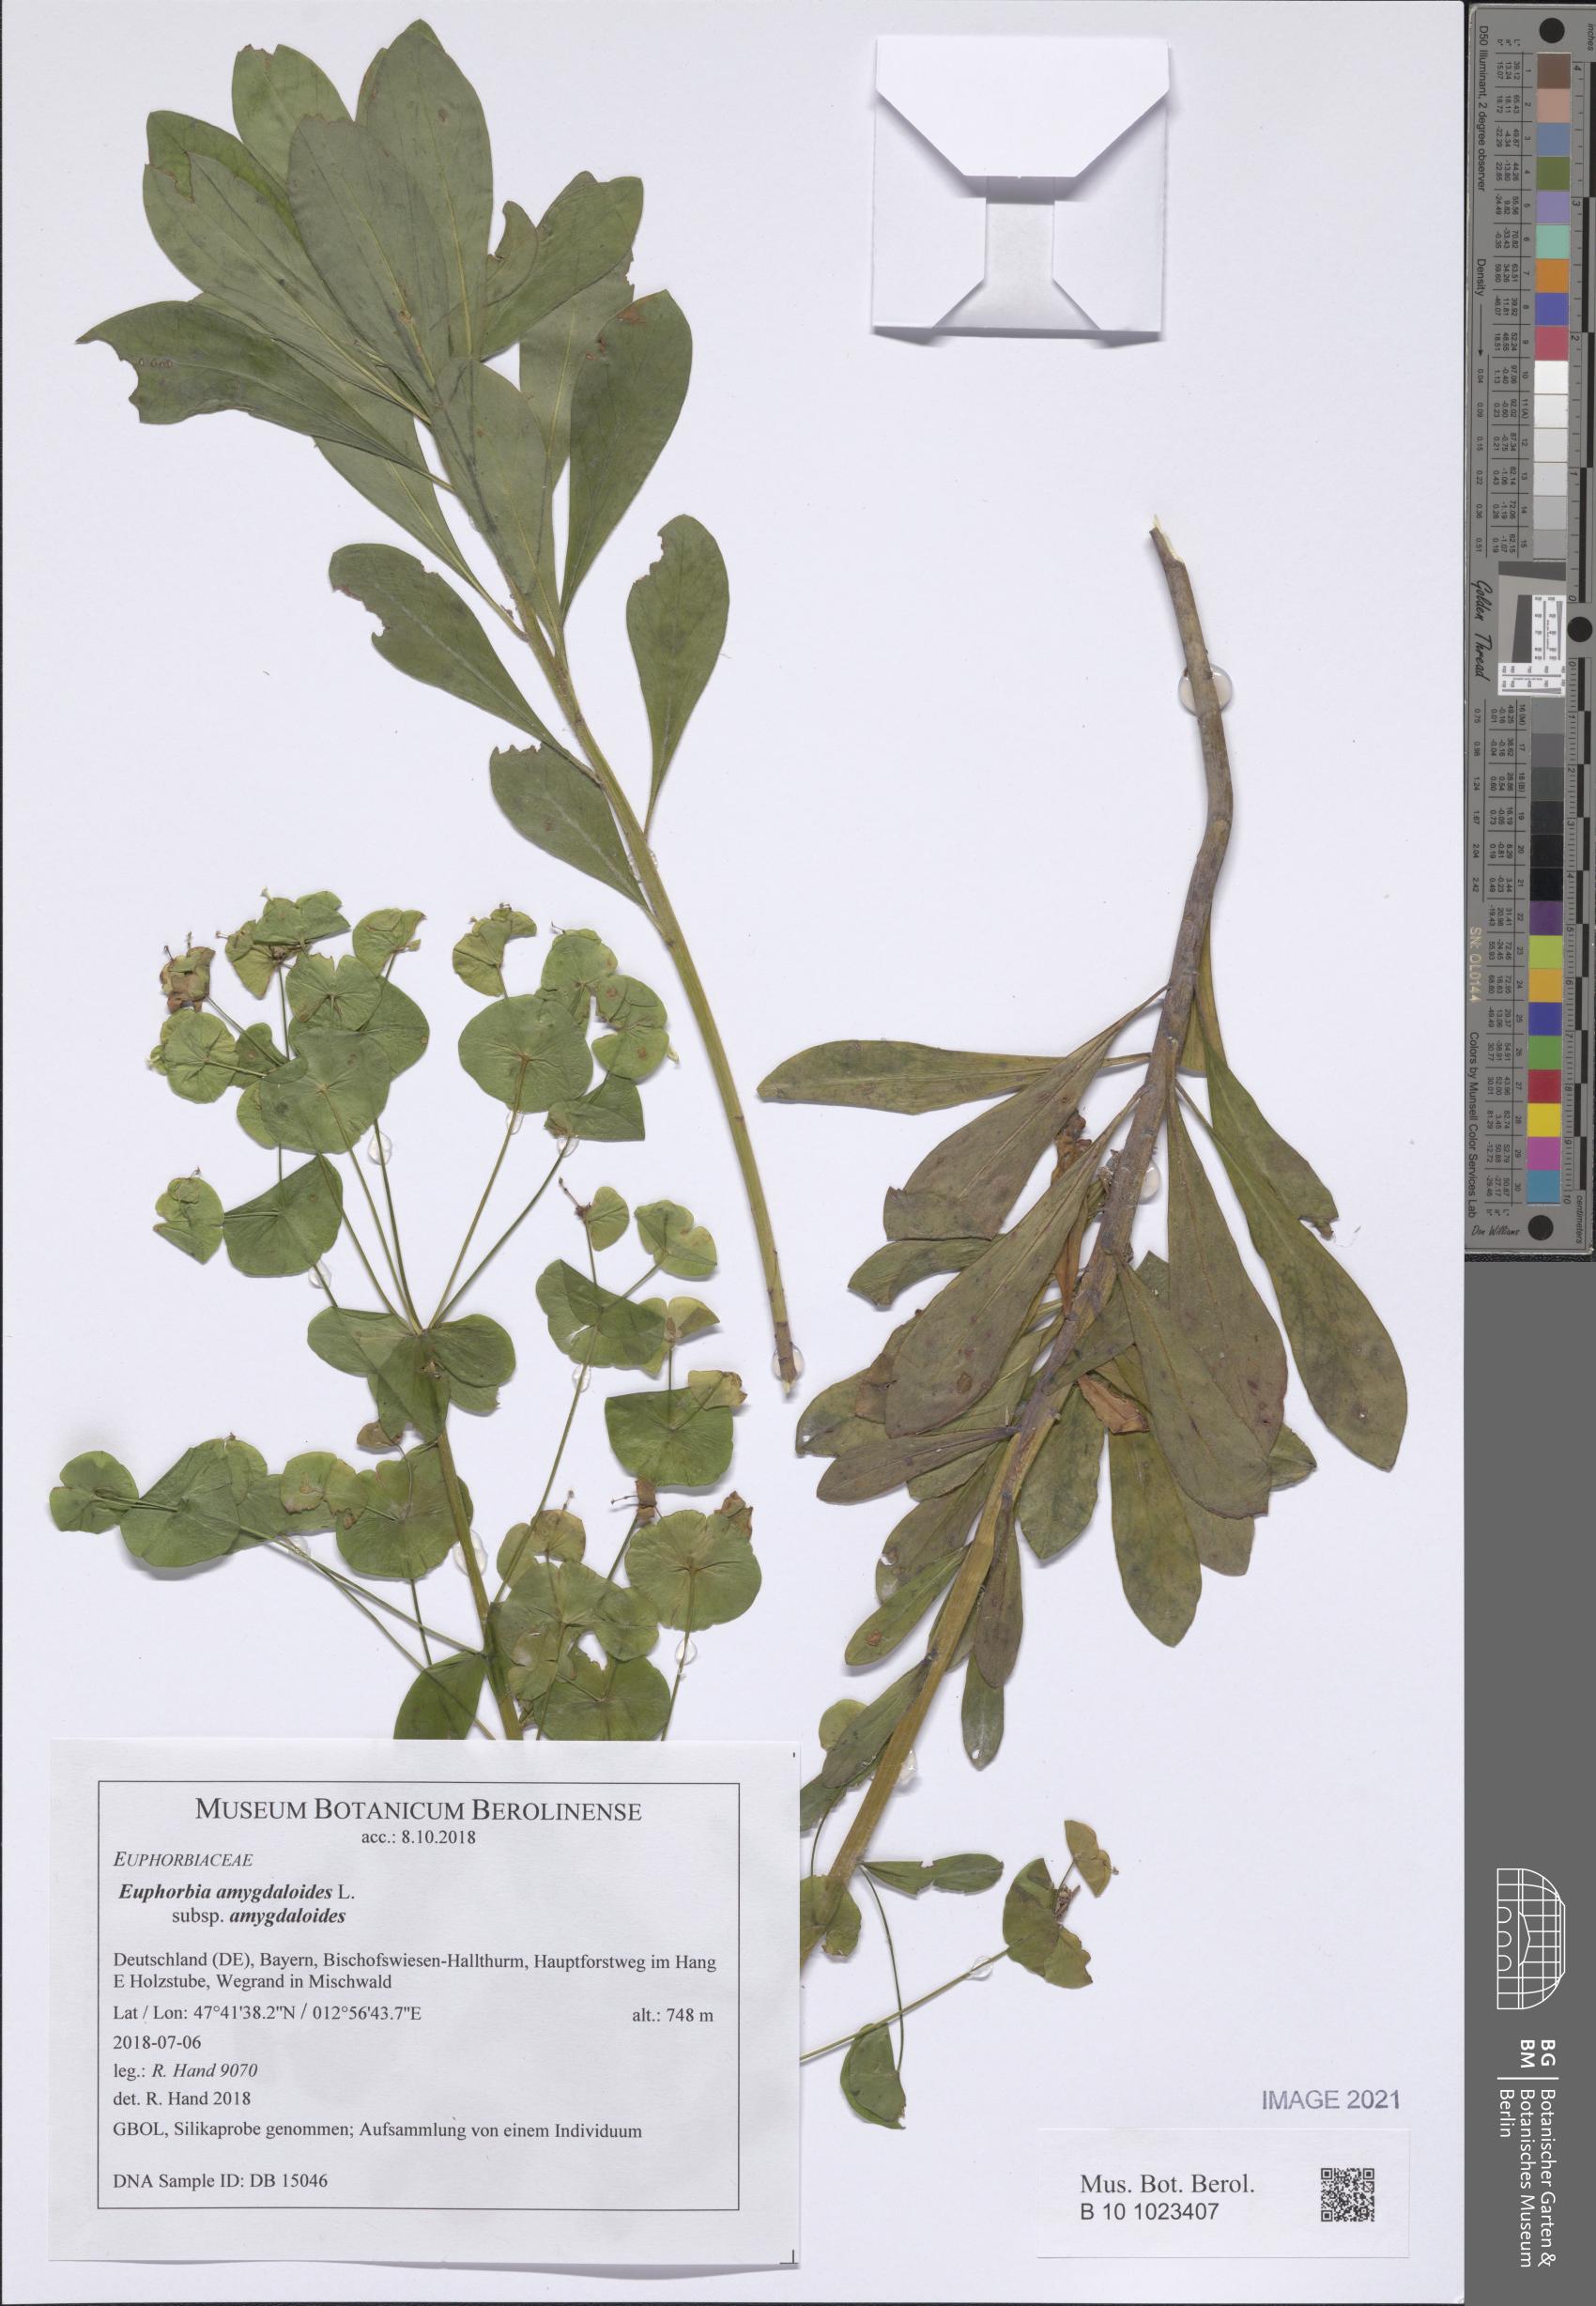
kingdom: Plantae
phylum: Tracheophyta
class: Magnoliopsida
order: Malpighiales
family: Euphorbiaceae
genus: Euphorbia
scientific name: Euphorbia amygdaloides
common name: Wood spurge
